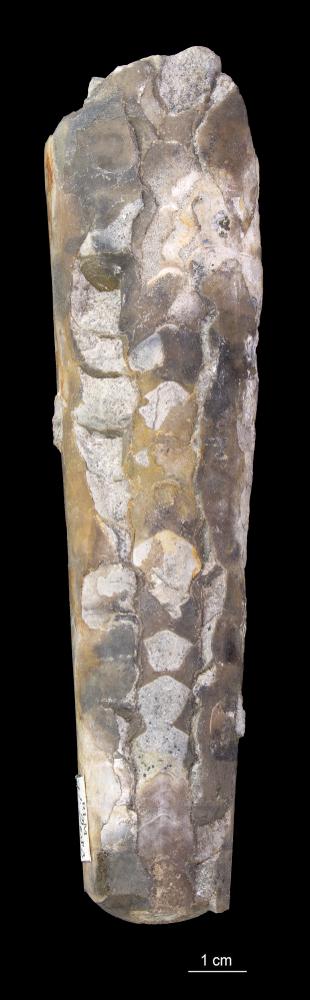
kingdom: Animalia
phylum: Mollusca
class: Cephalopoda
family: Endoceratidae
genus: Endoceras
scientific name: Endoceras
